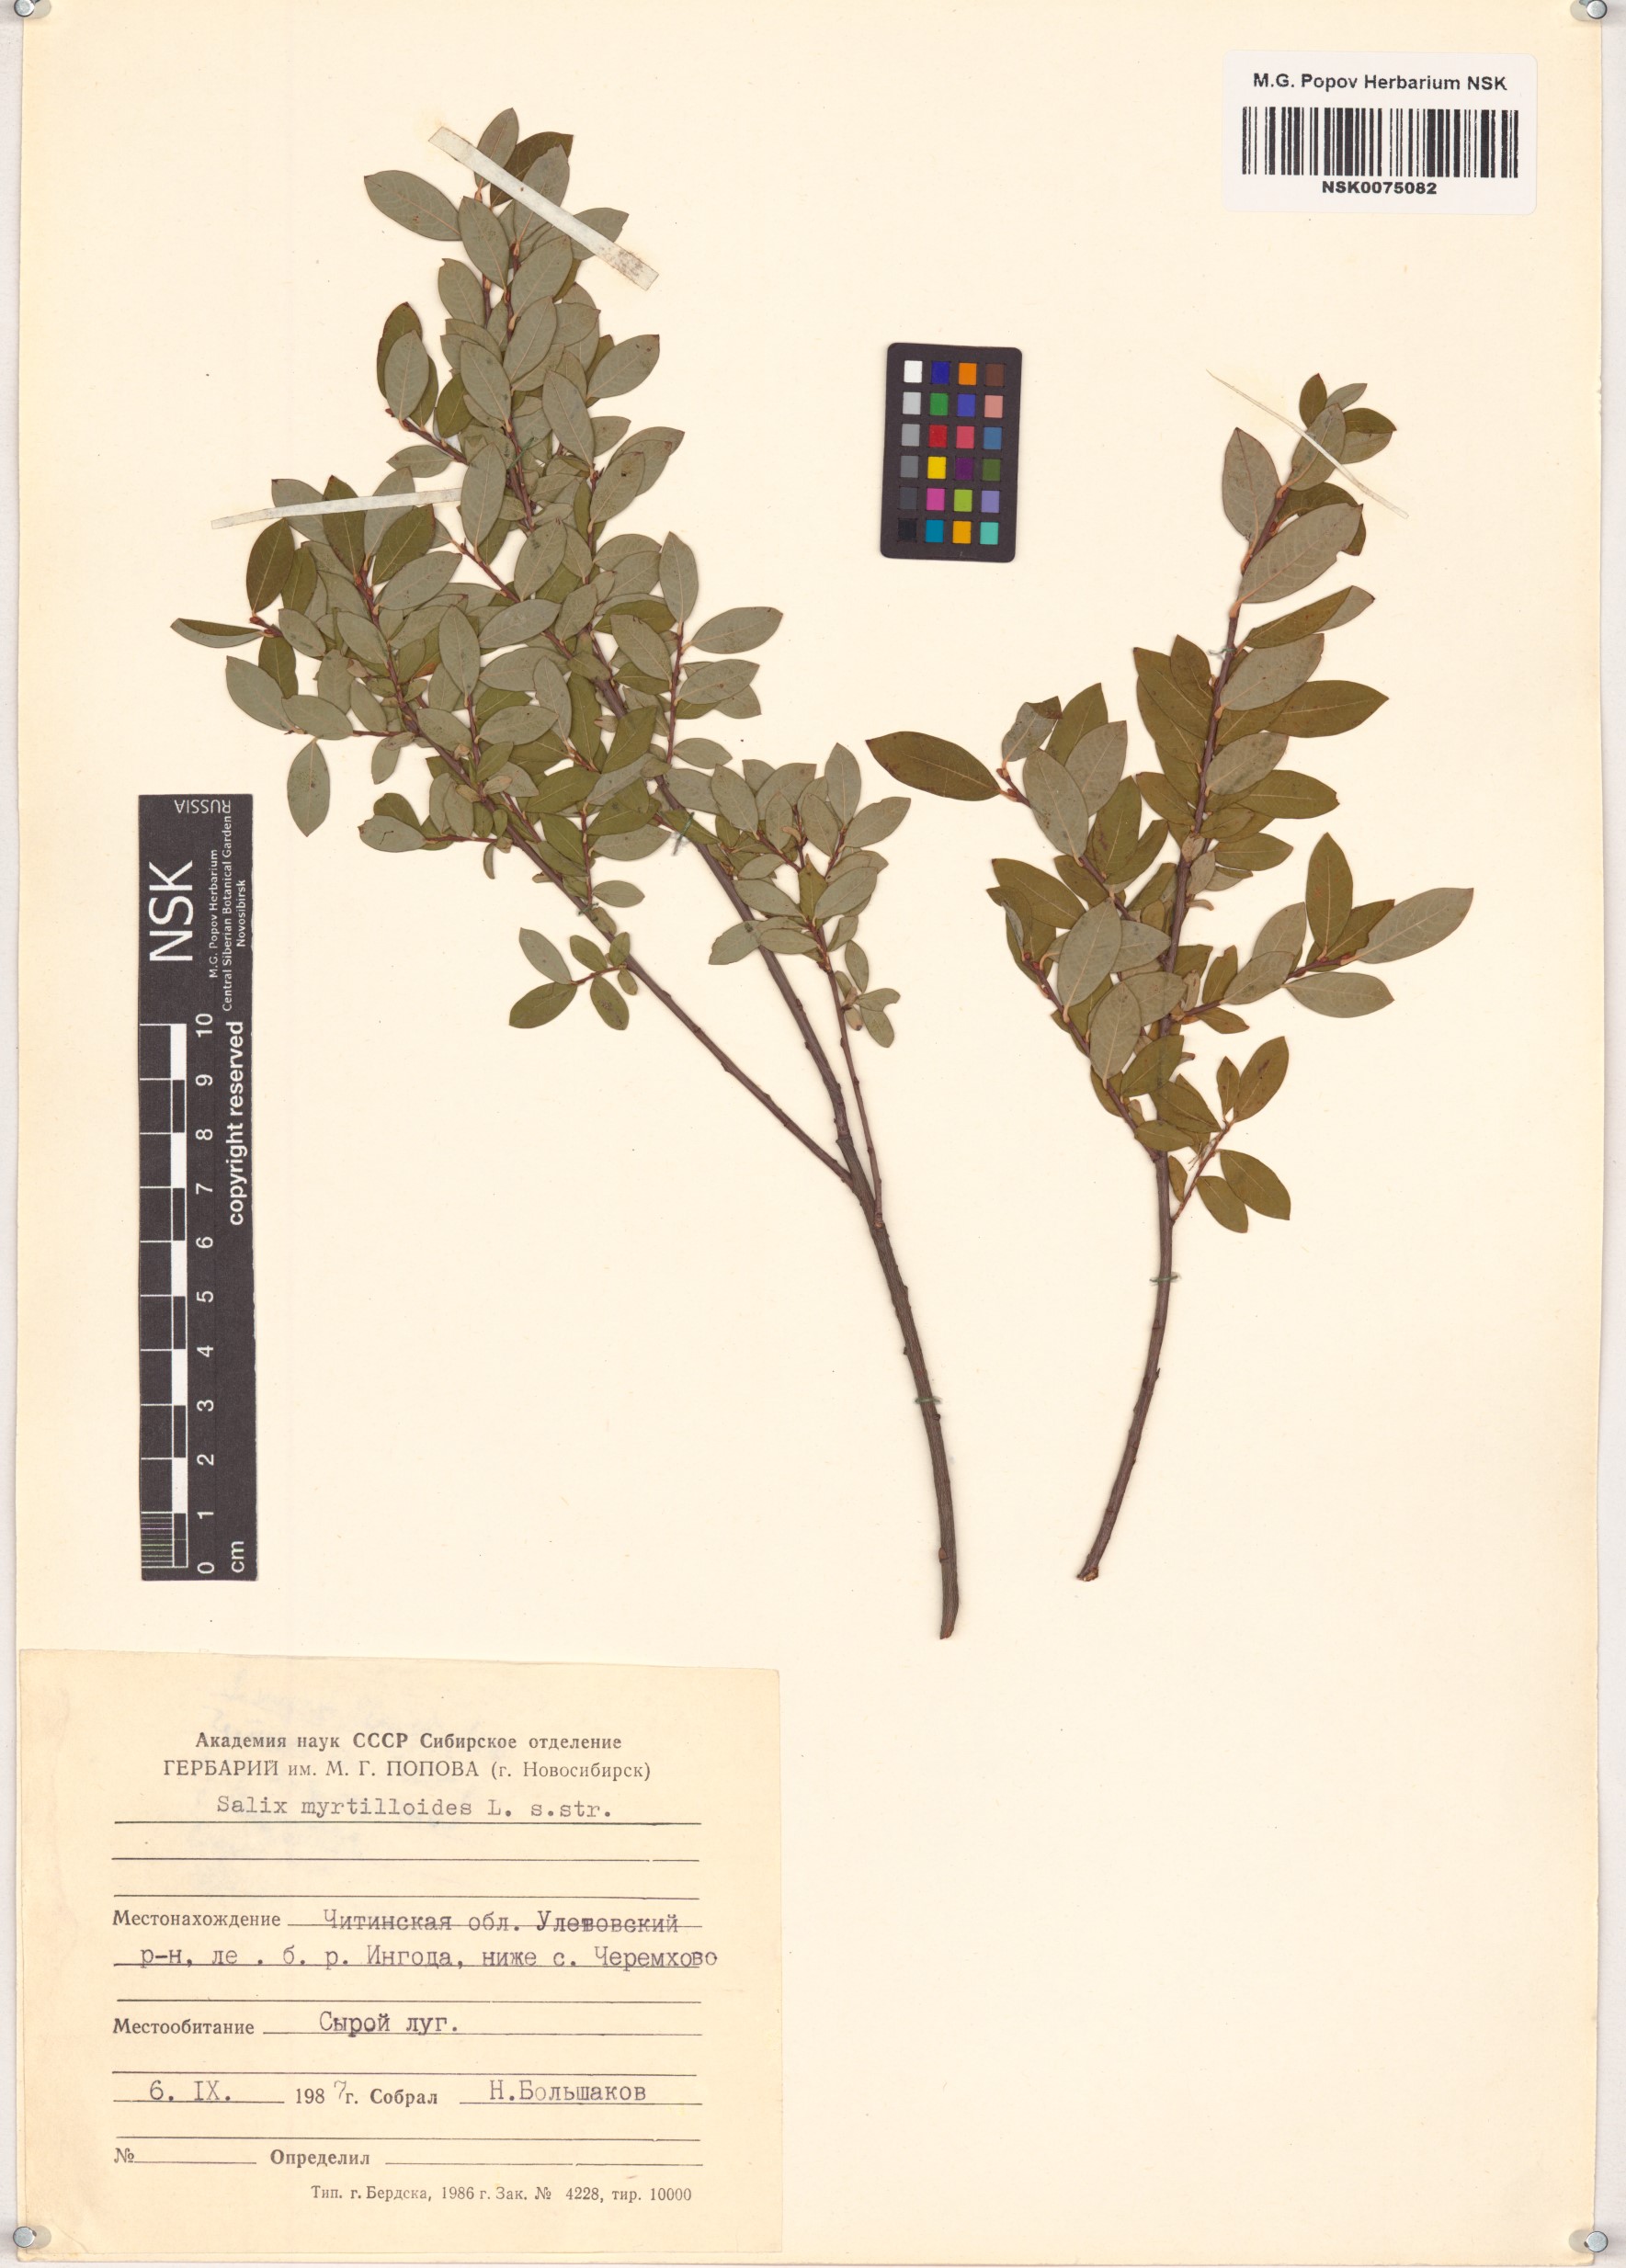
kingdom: Plantae
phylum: Tracheophyta
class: Magnoliopsida
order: Malpighiales
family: Salicaceae
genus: Salix
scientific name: Salix myrtilloides
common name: Myrtle-leaved willow
